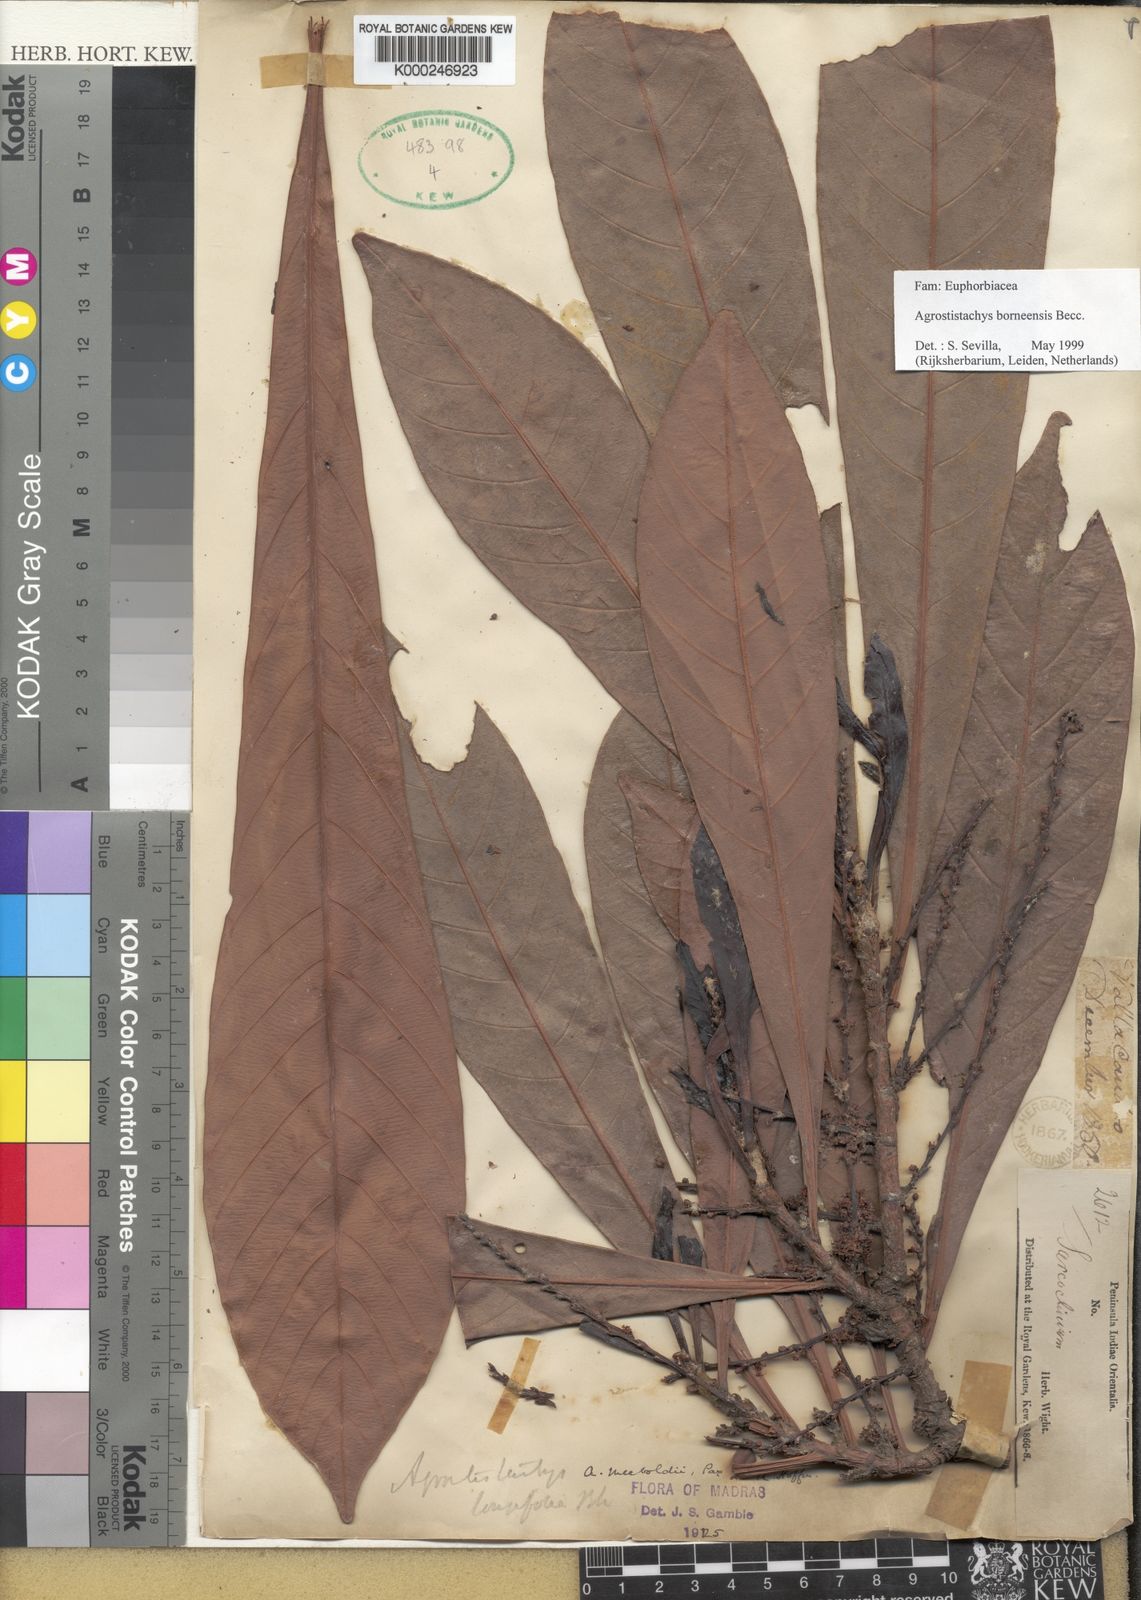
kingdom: Plantae
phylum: Tracheophyta
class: Magnoliopsida
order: Malpighiales
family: Euphorbiaceae
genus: Agrostistachys
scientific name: Agrostistachys borneensis
